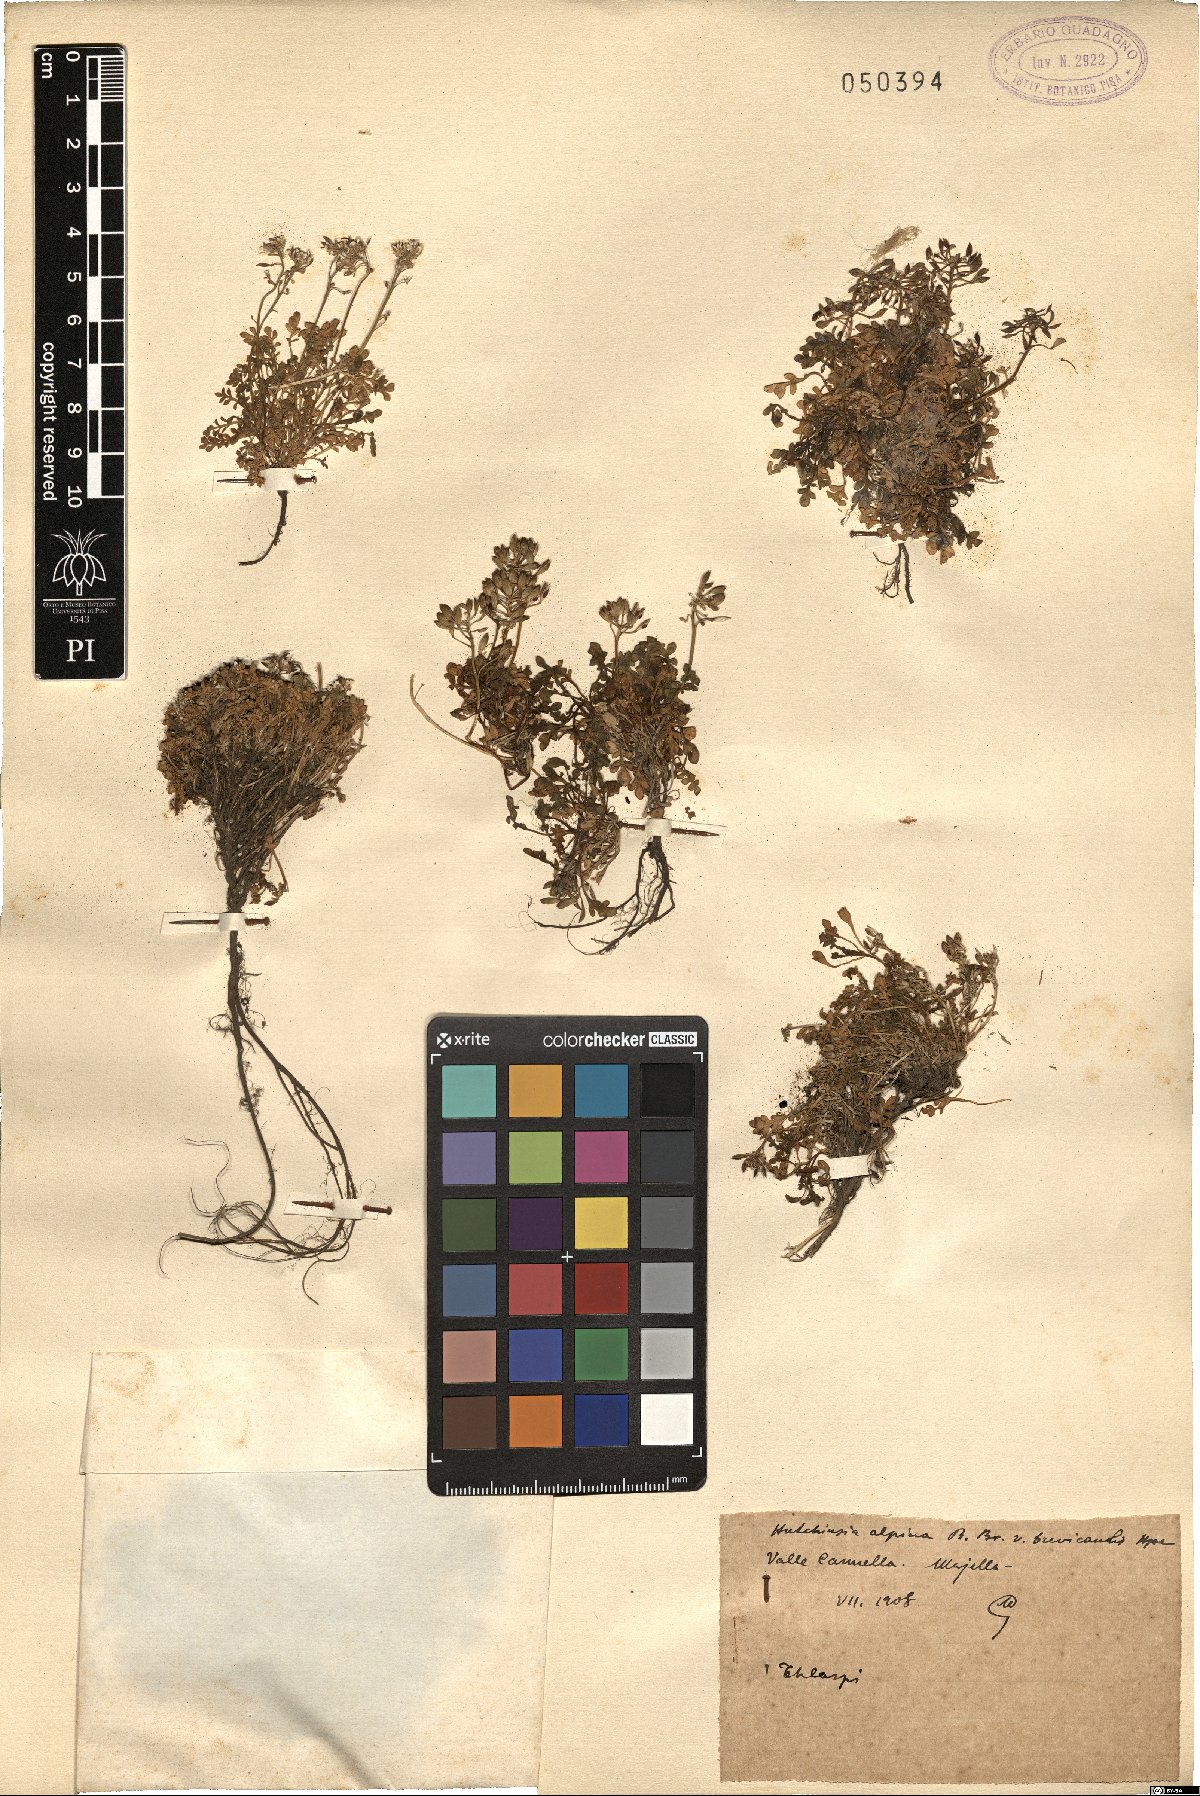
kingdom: Plantae
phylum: Tracheophyta
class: Magnoliopsida
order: Brassicales
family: Brassicaceae
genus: Hornungia
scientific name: Hornungia alpina
